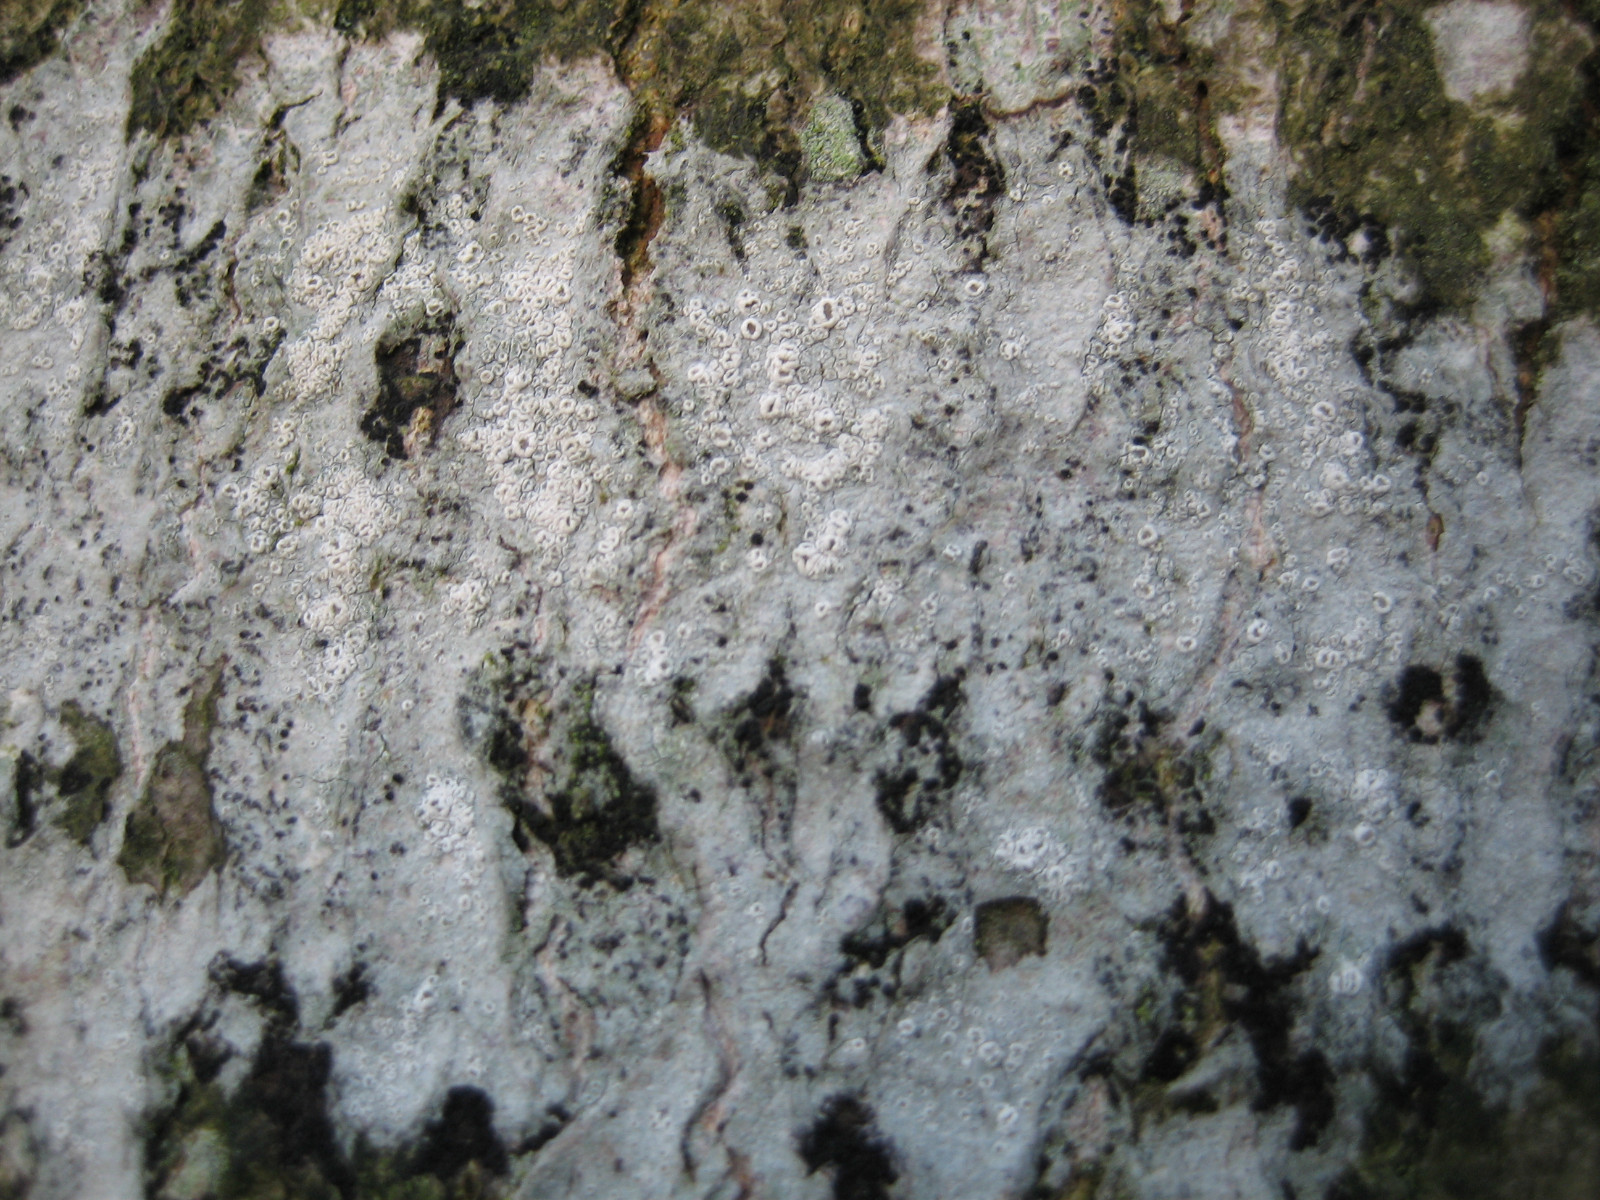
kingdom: Fungi
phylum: Ascomycota
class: Lecanoromycetes
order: Lecanorales
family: Lecanoraceae
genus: Lecanora
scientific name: Lecanora intumescens
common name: filtrandet kantskivelav
